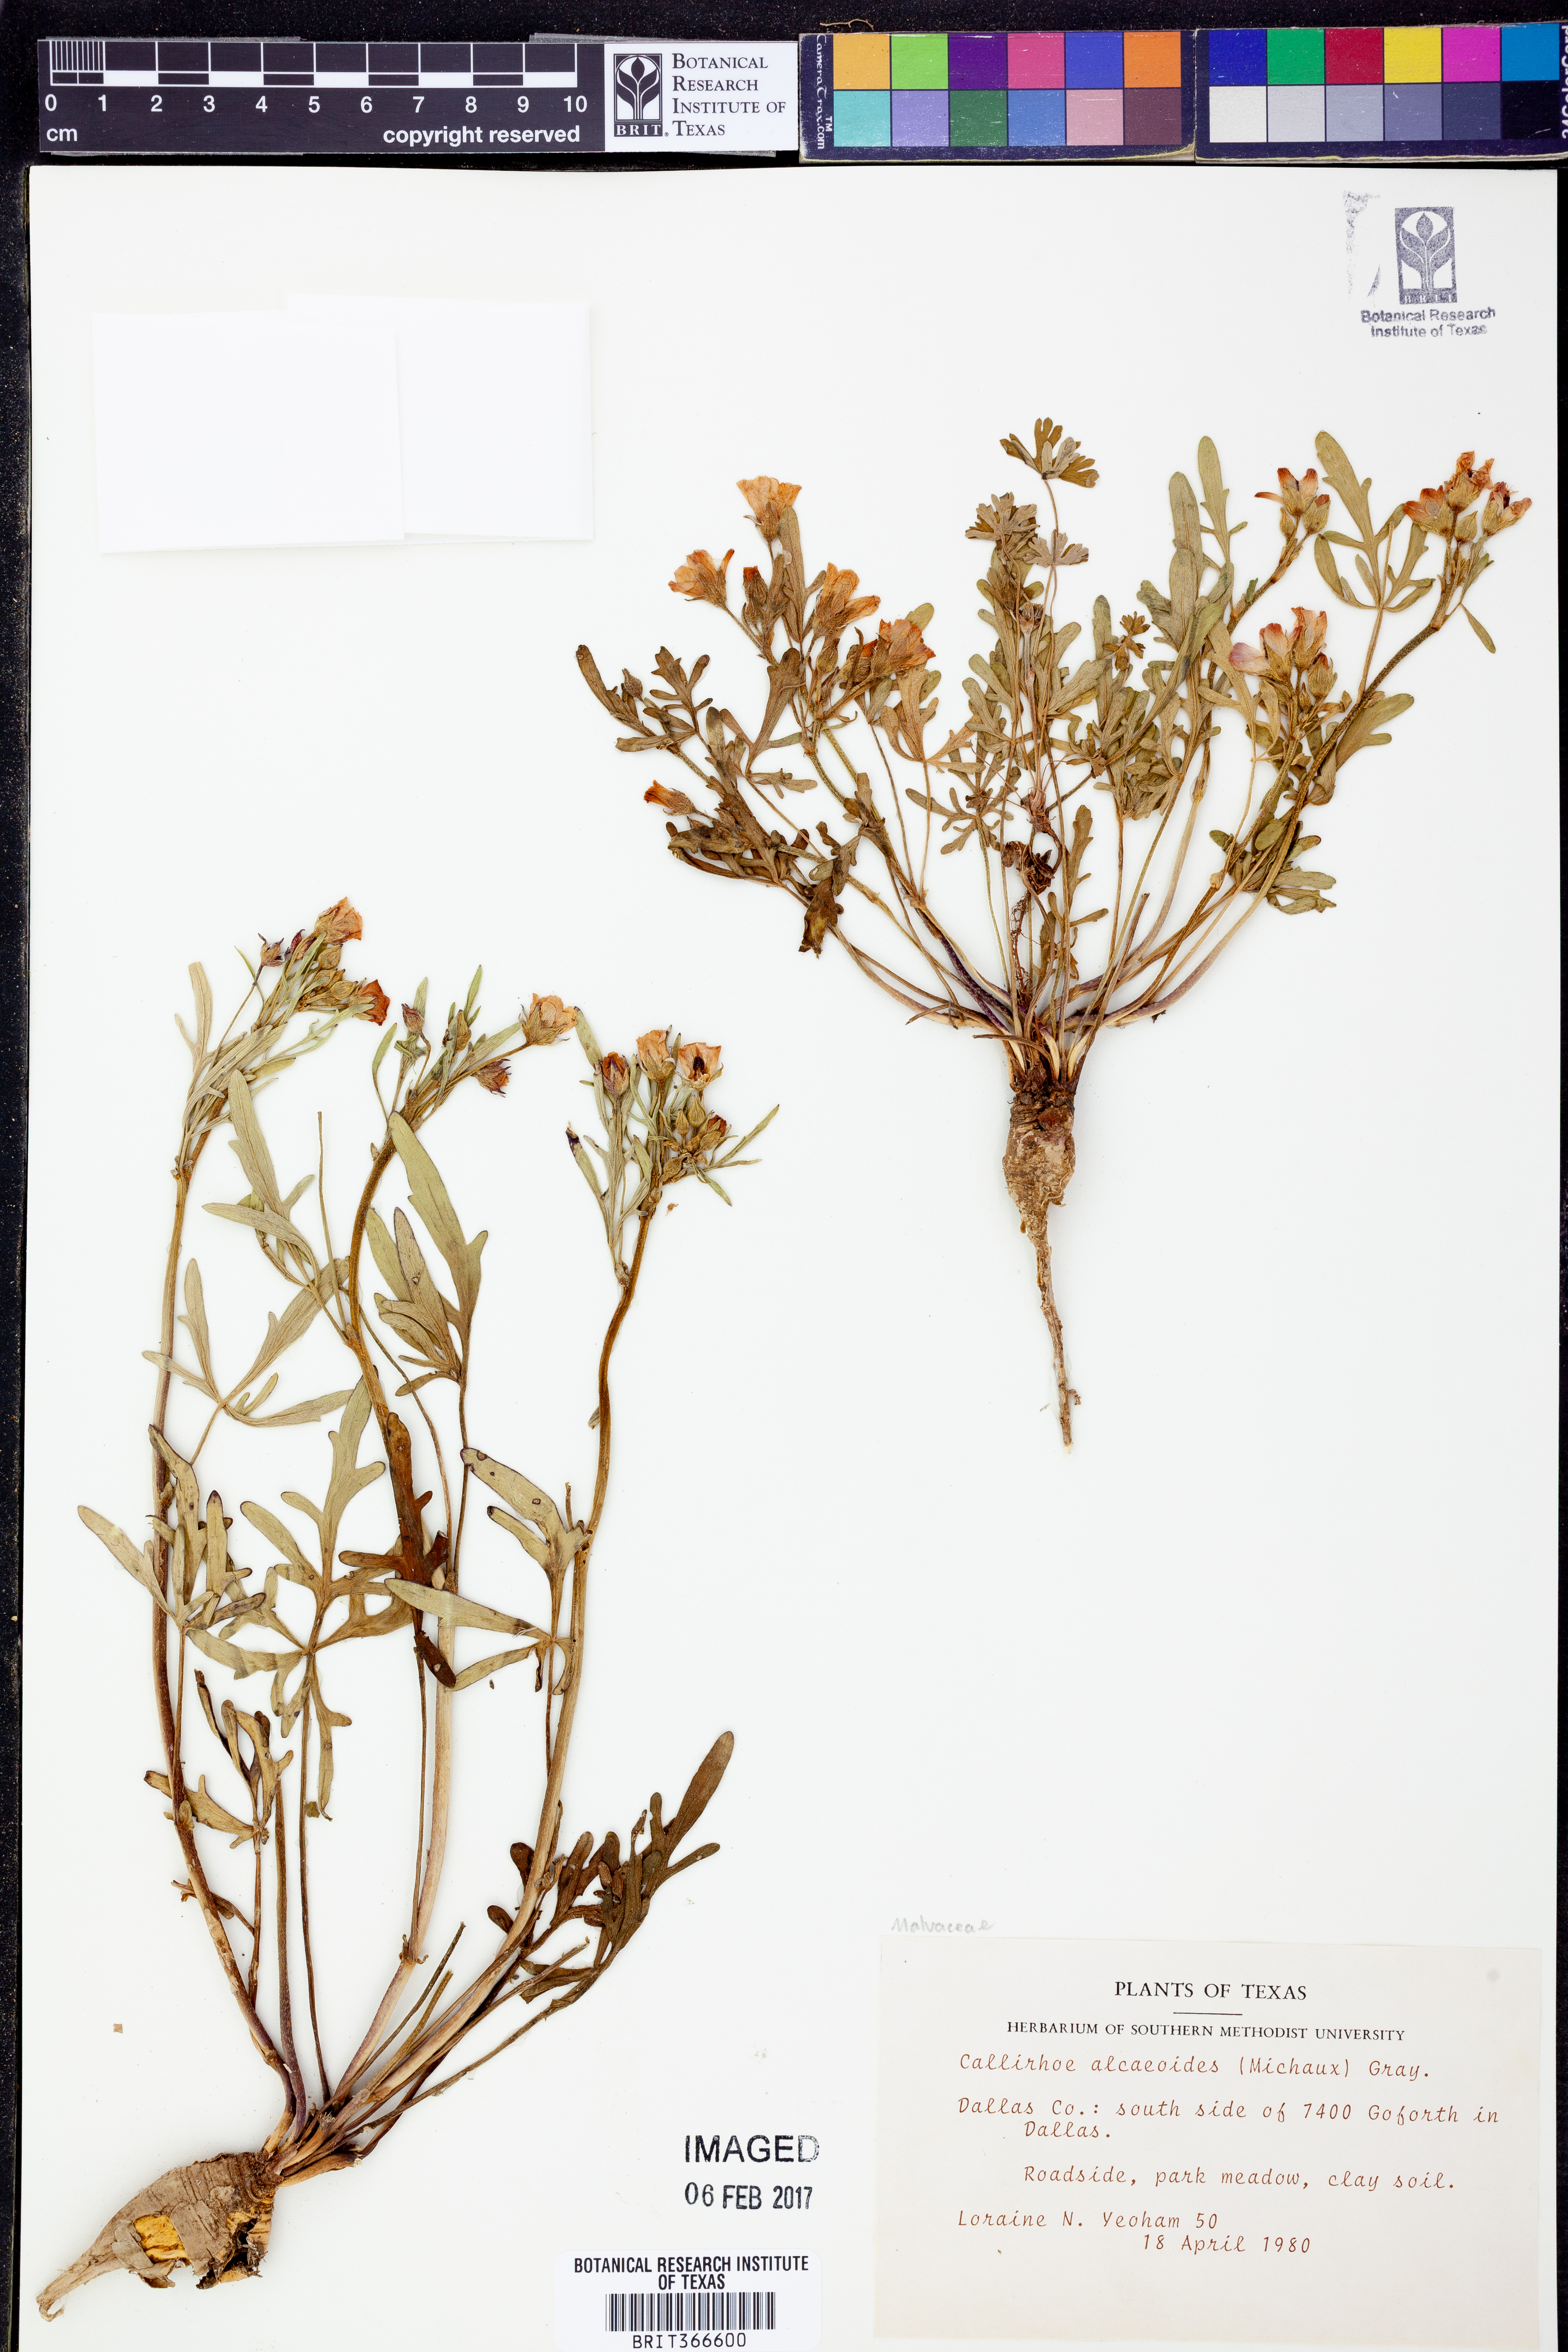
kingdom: Plantae
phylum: Tracheophyta
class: Magnoliopsida
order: Malvales
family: Malvaceae
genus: Callirhoe
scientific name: Callirhoe alcaeoides
